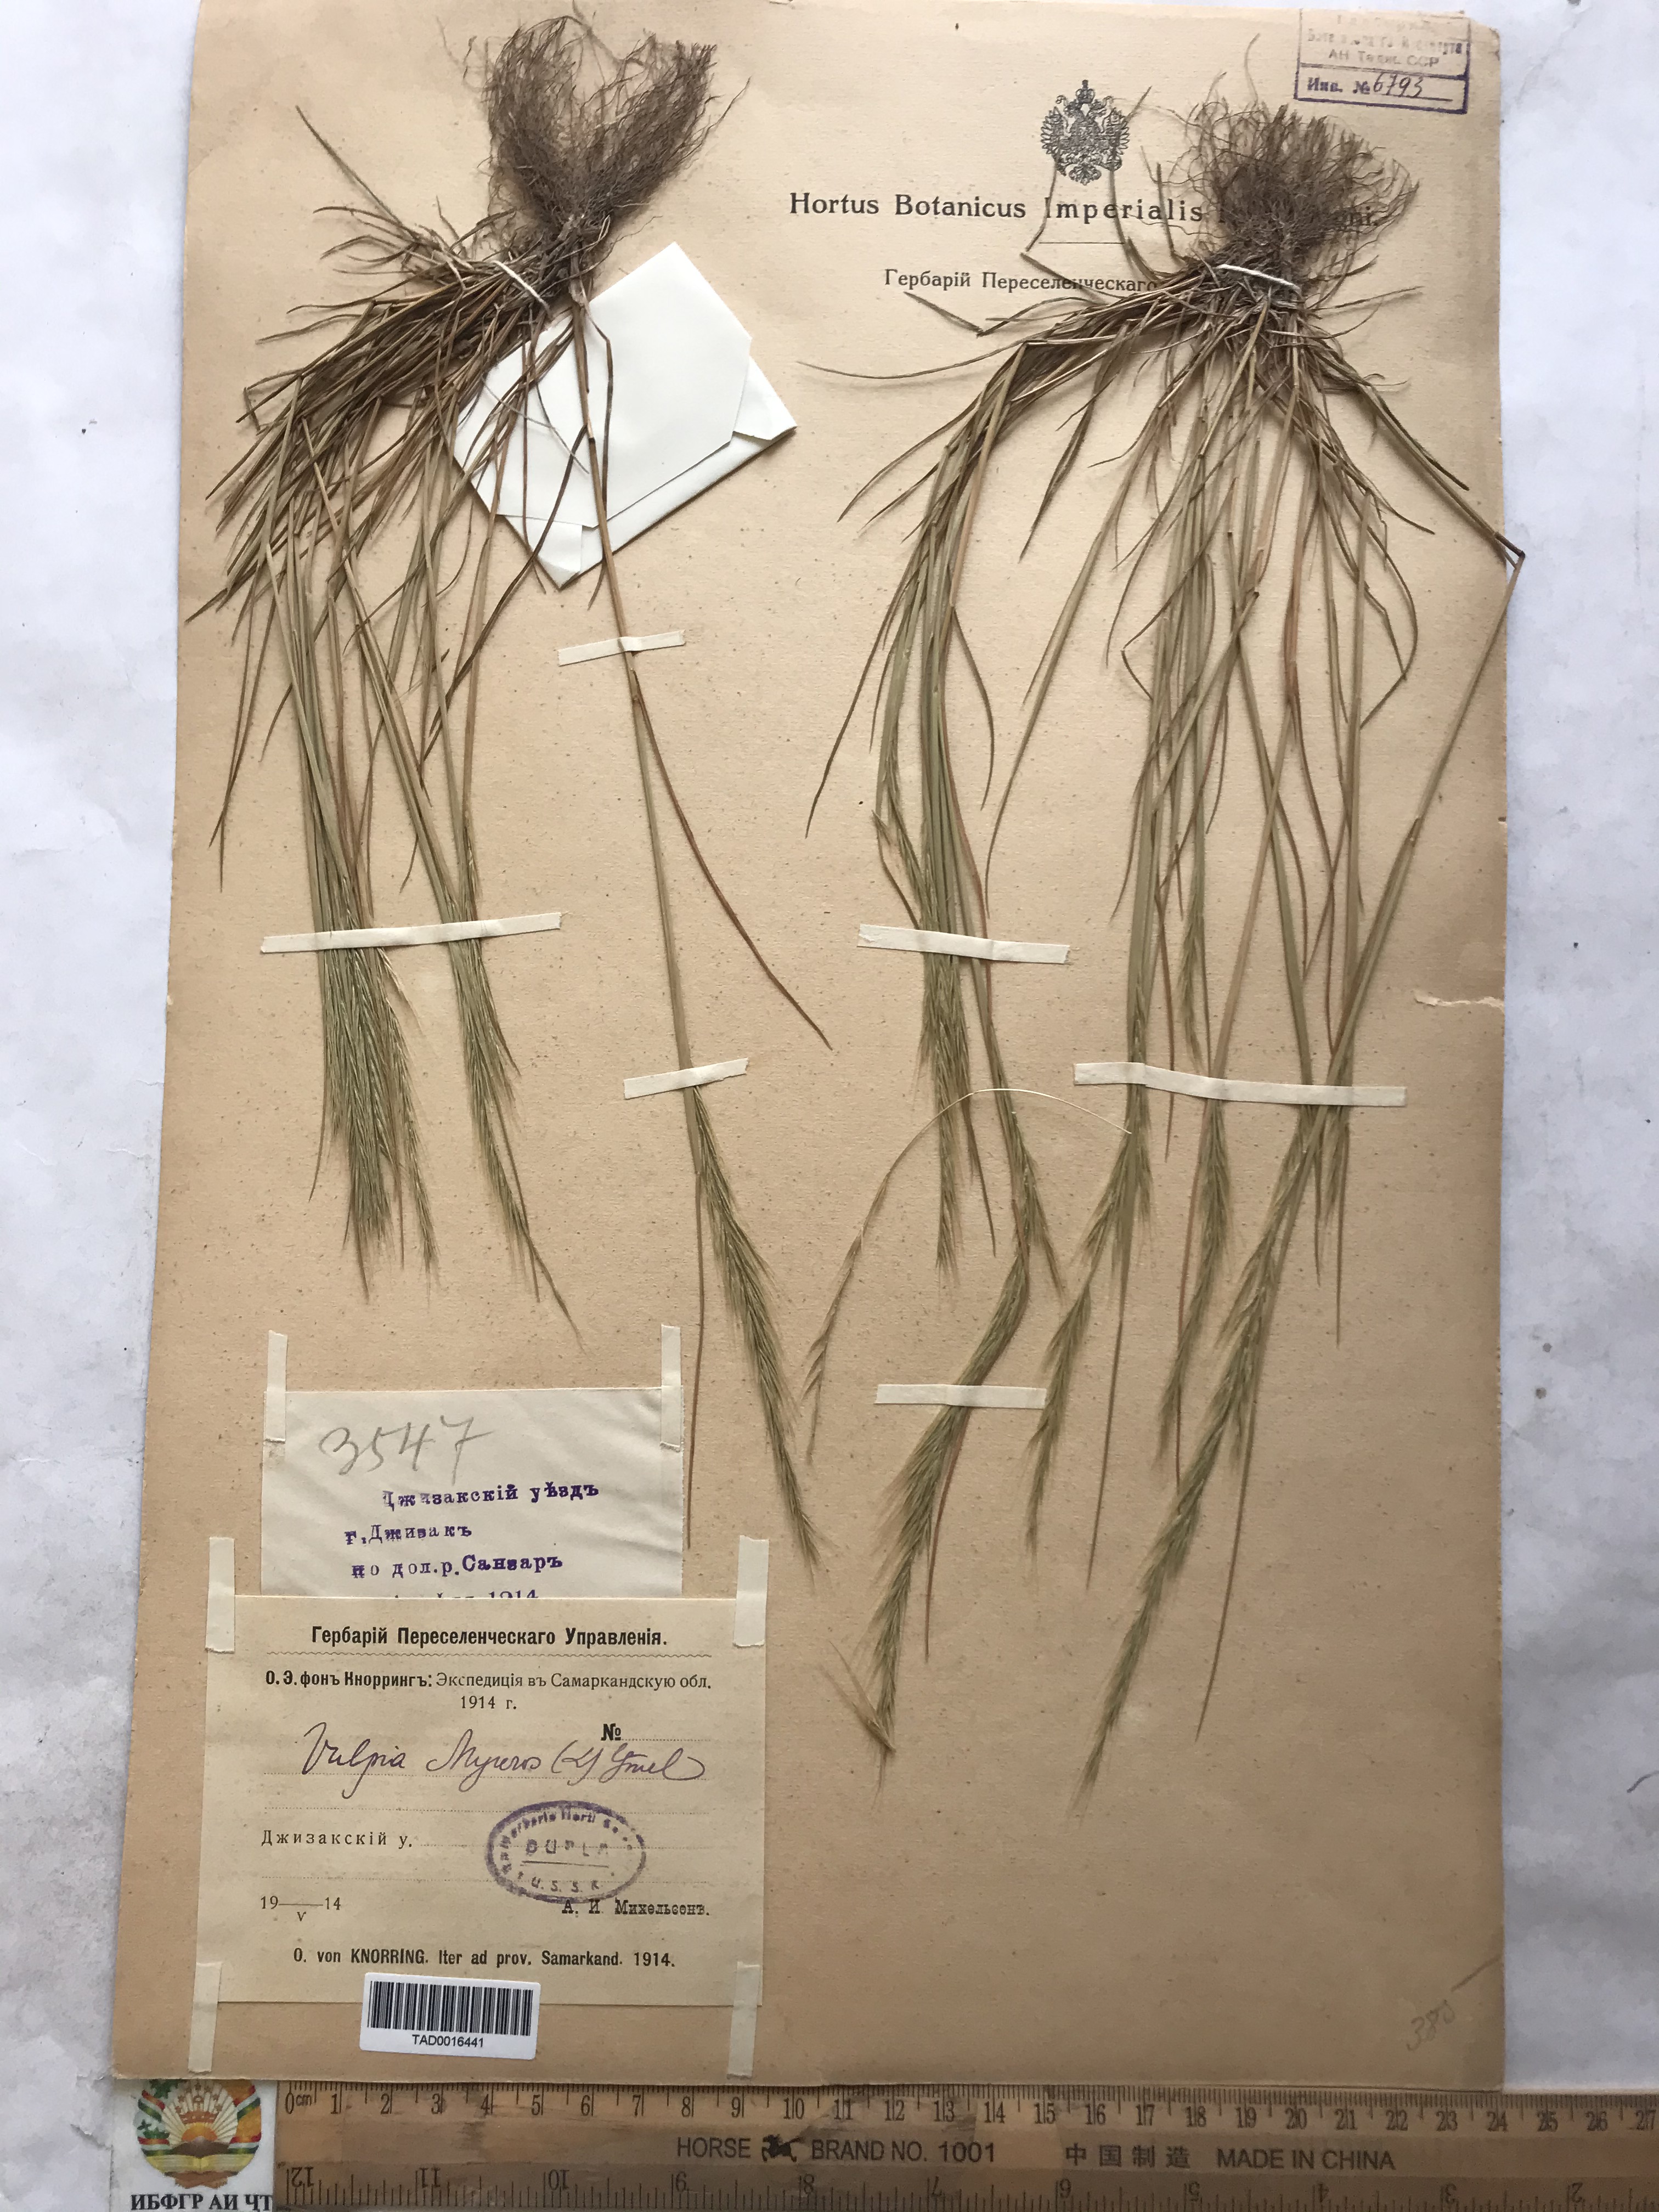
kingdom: Plantae
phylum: Tracheophyta
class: Liliopsida
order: Poales
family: Poaceae
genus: Festuca
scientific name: Festuca myuros
